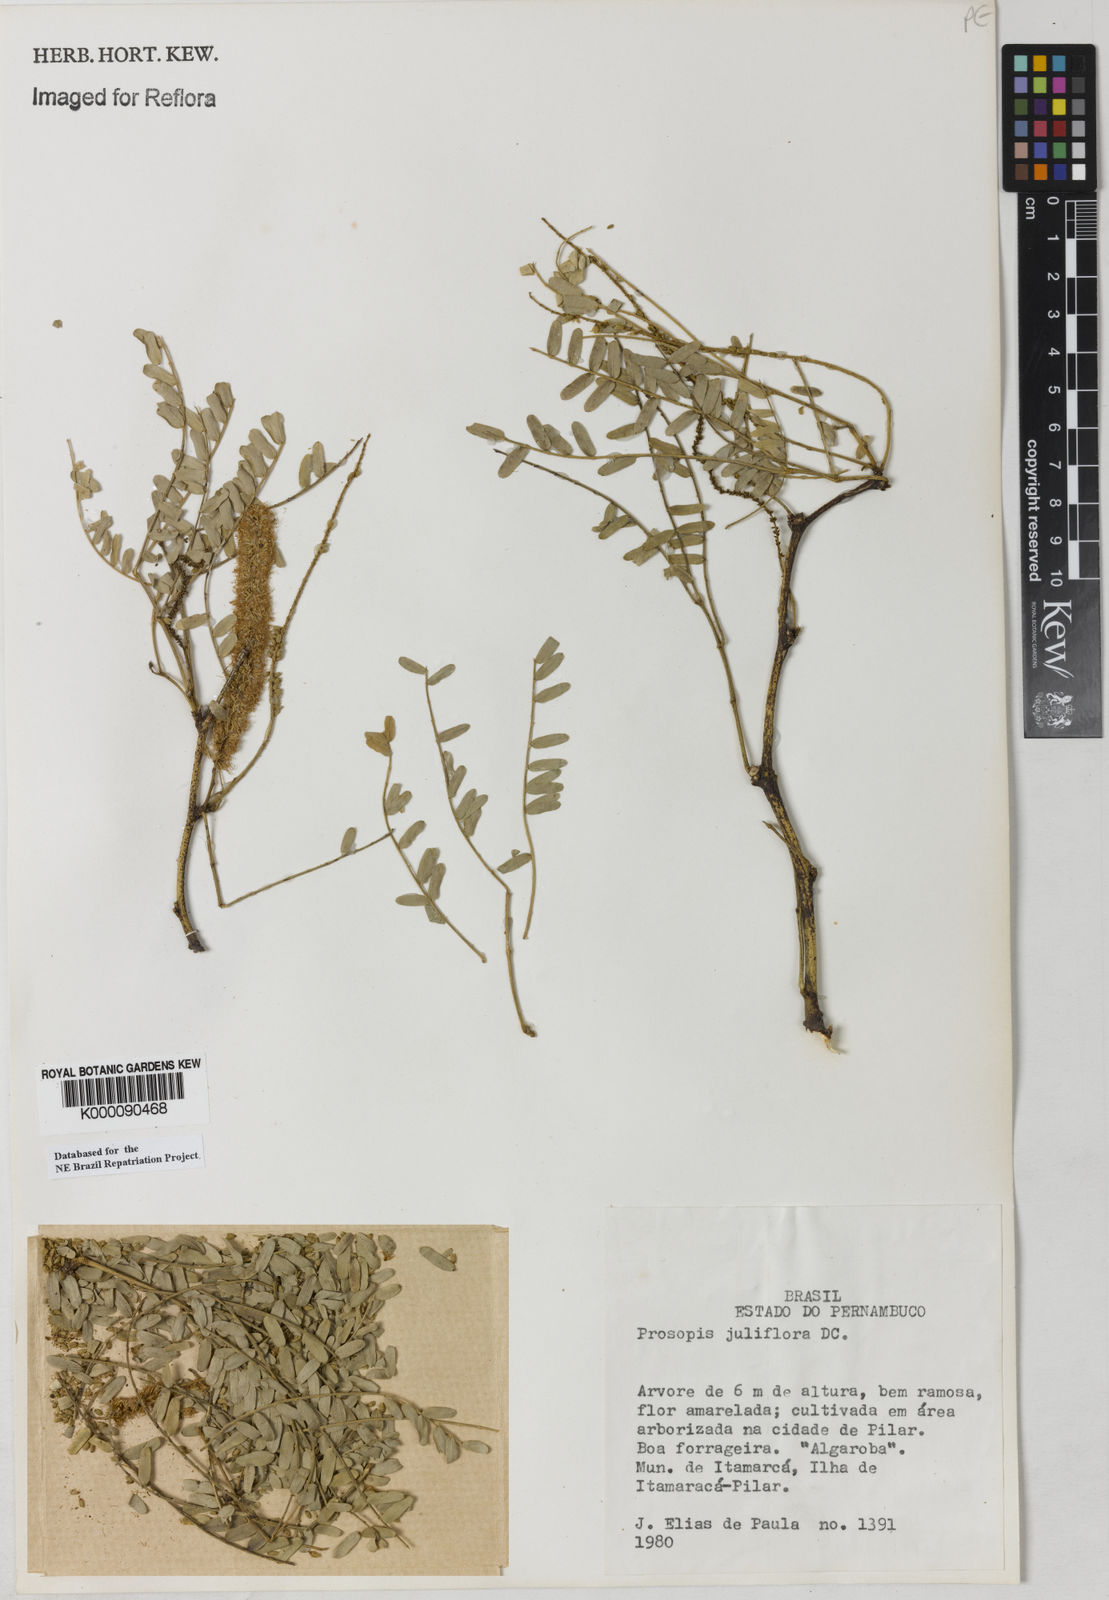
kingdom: Plantae
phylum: Tracheophyta
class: Magnoliopsida
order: Fabales
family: Fabaceae
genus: Prosopis
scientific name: Prosopis juliflora
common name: Mesquite
